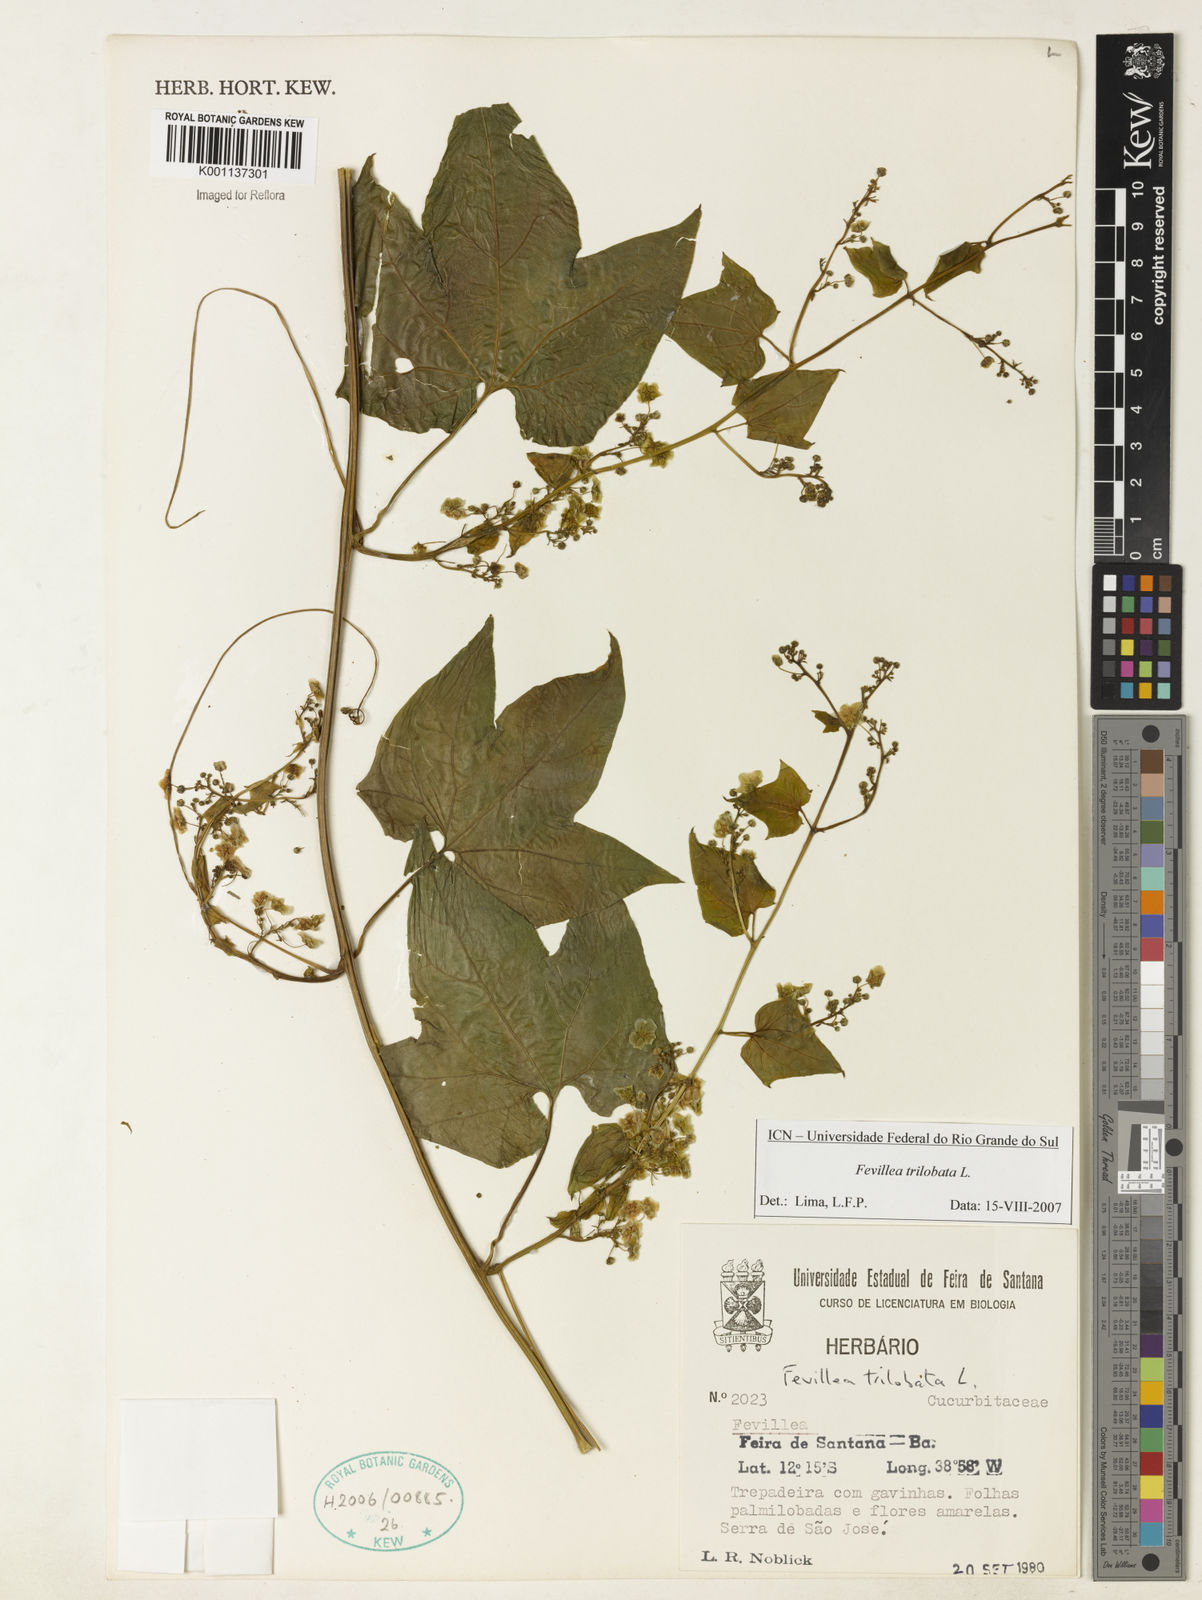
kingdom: Plantae
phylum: Tracheophyta
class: Magnoliopsida
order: Cucurbitales
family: Cucurbitaceae
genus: Fevillea
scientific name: Fevillea trilobata
